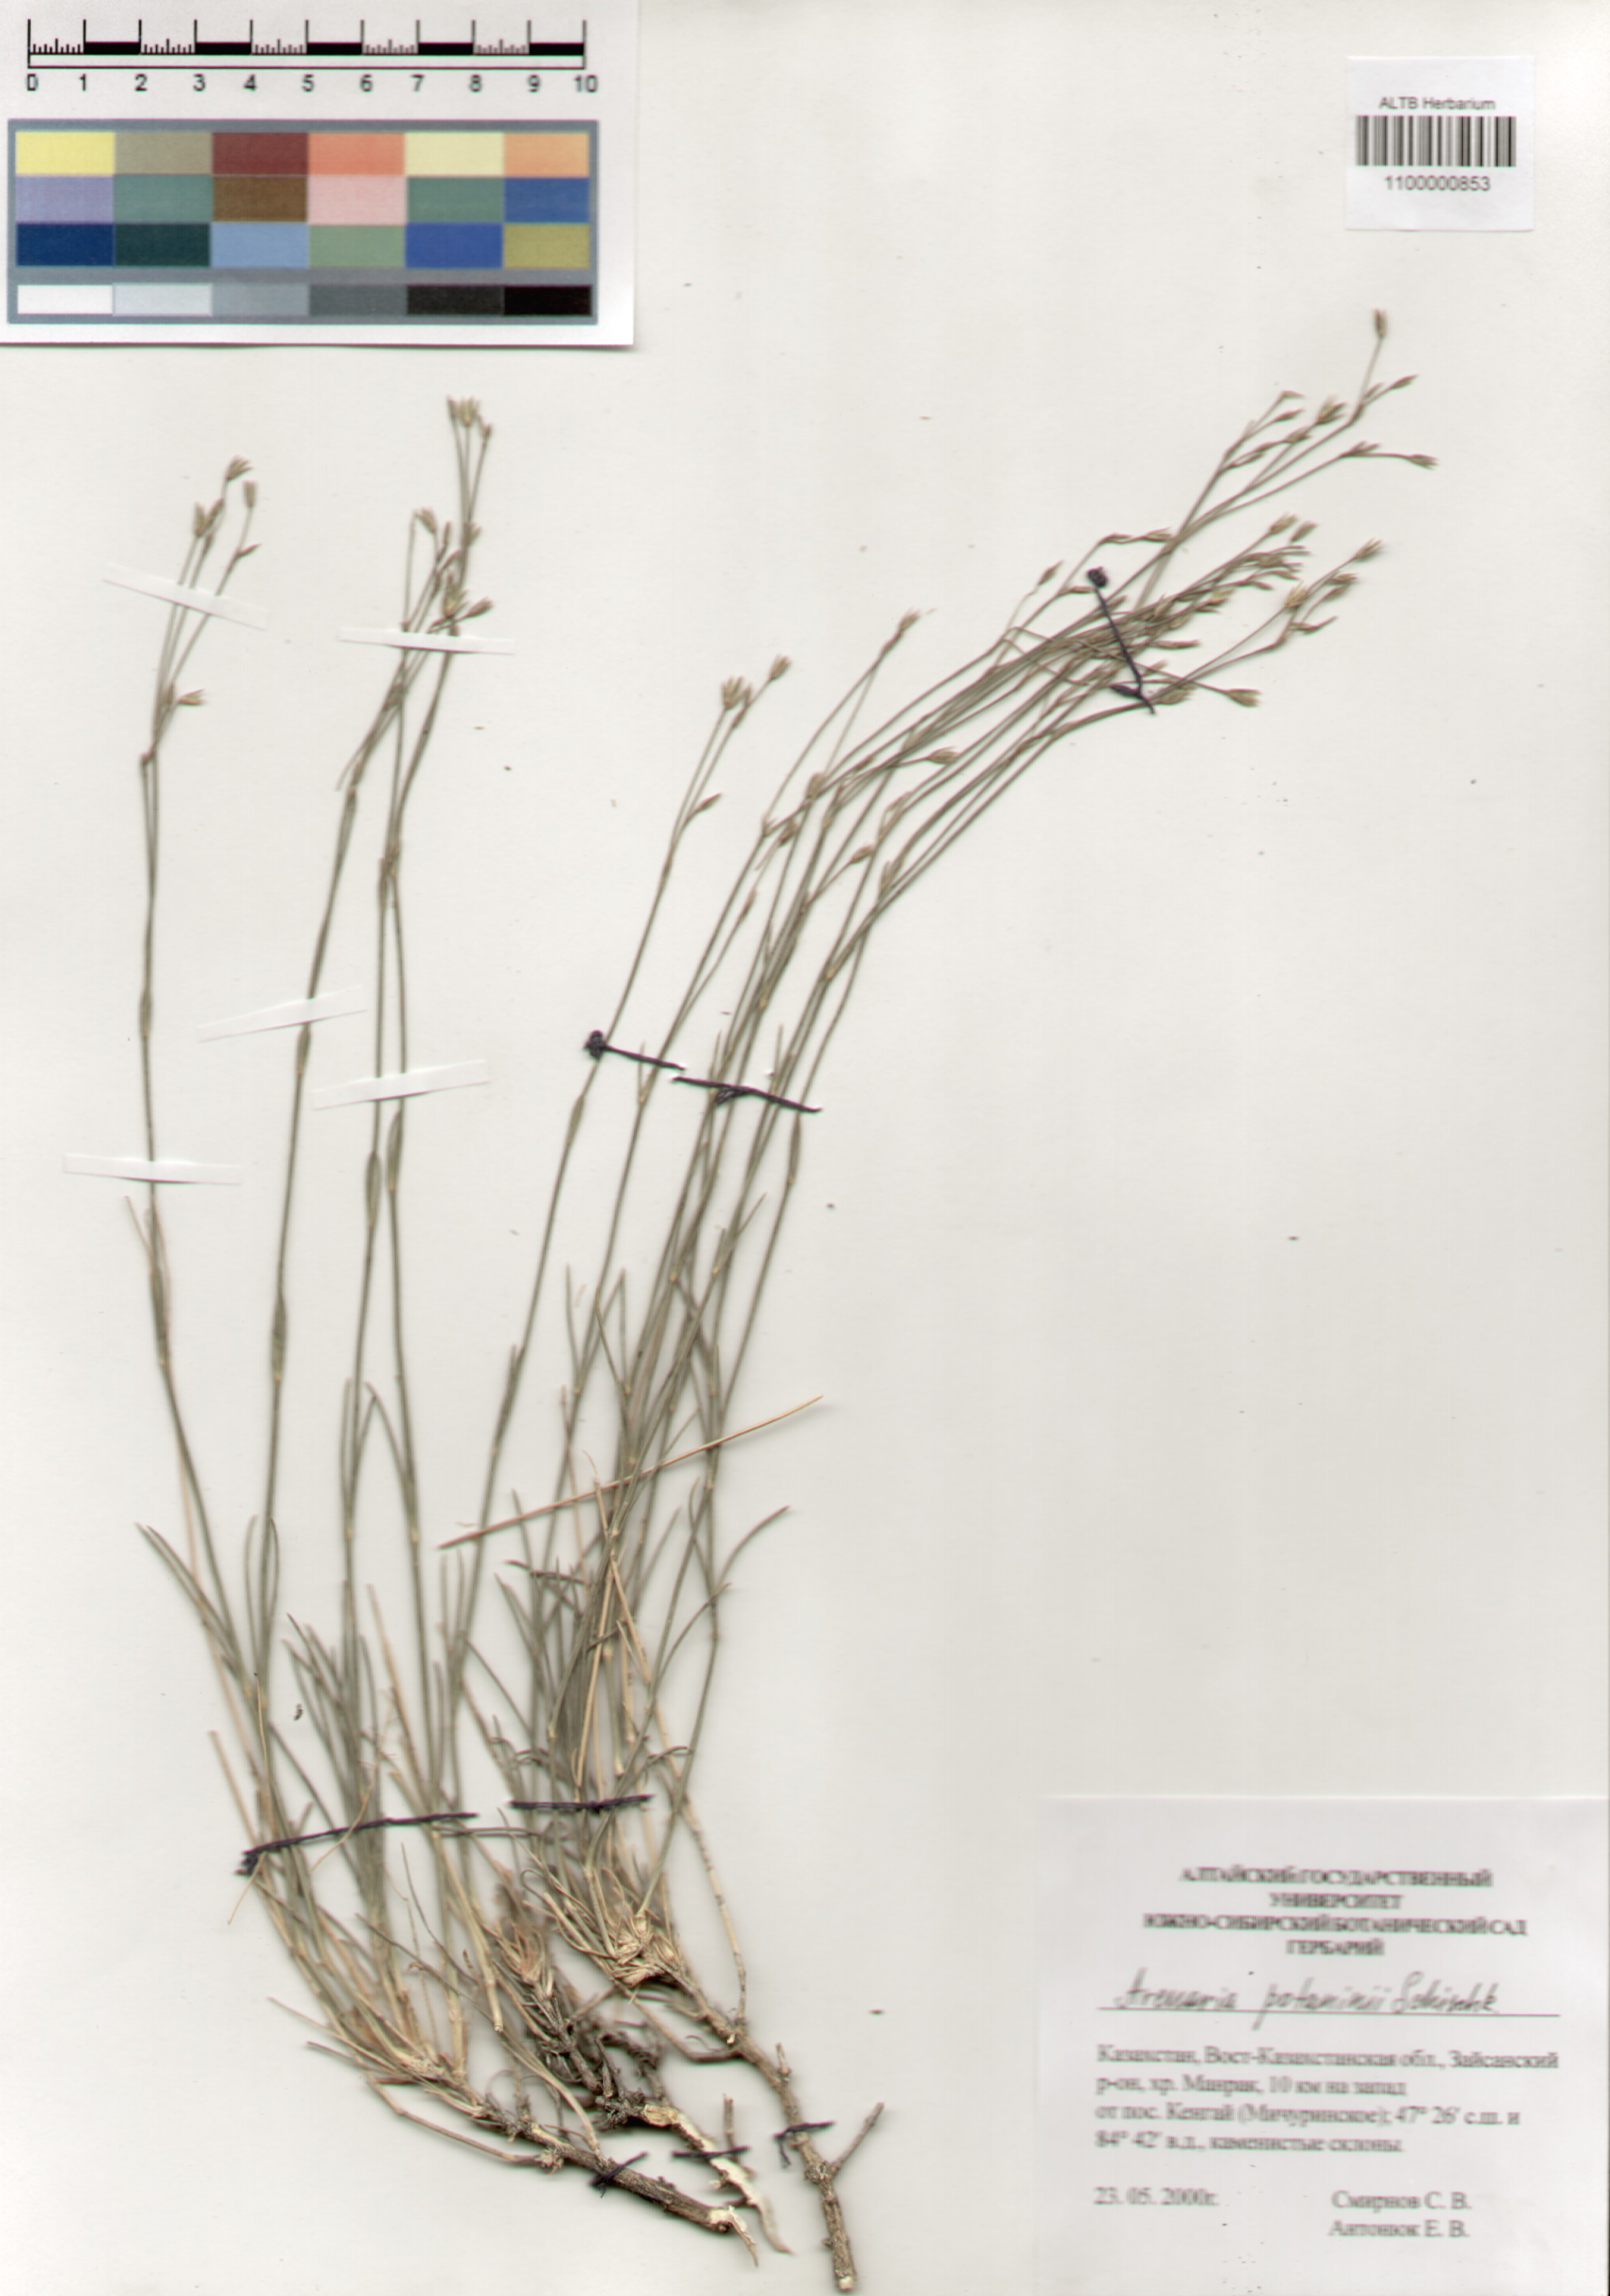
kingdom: Plantae
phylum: Tracheophyta
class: Magnoliopsida
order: Caryophyllales
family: Caryophyllaceae
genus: Eremogone
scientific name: Eremogone potaninii
